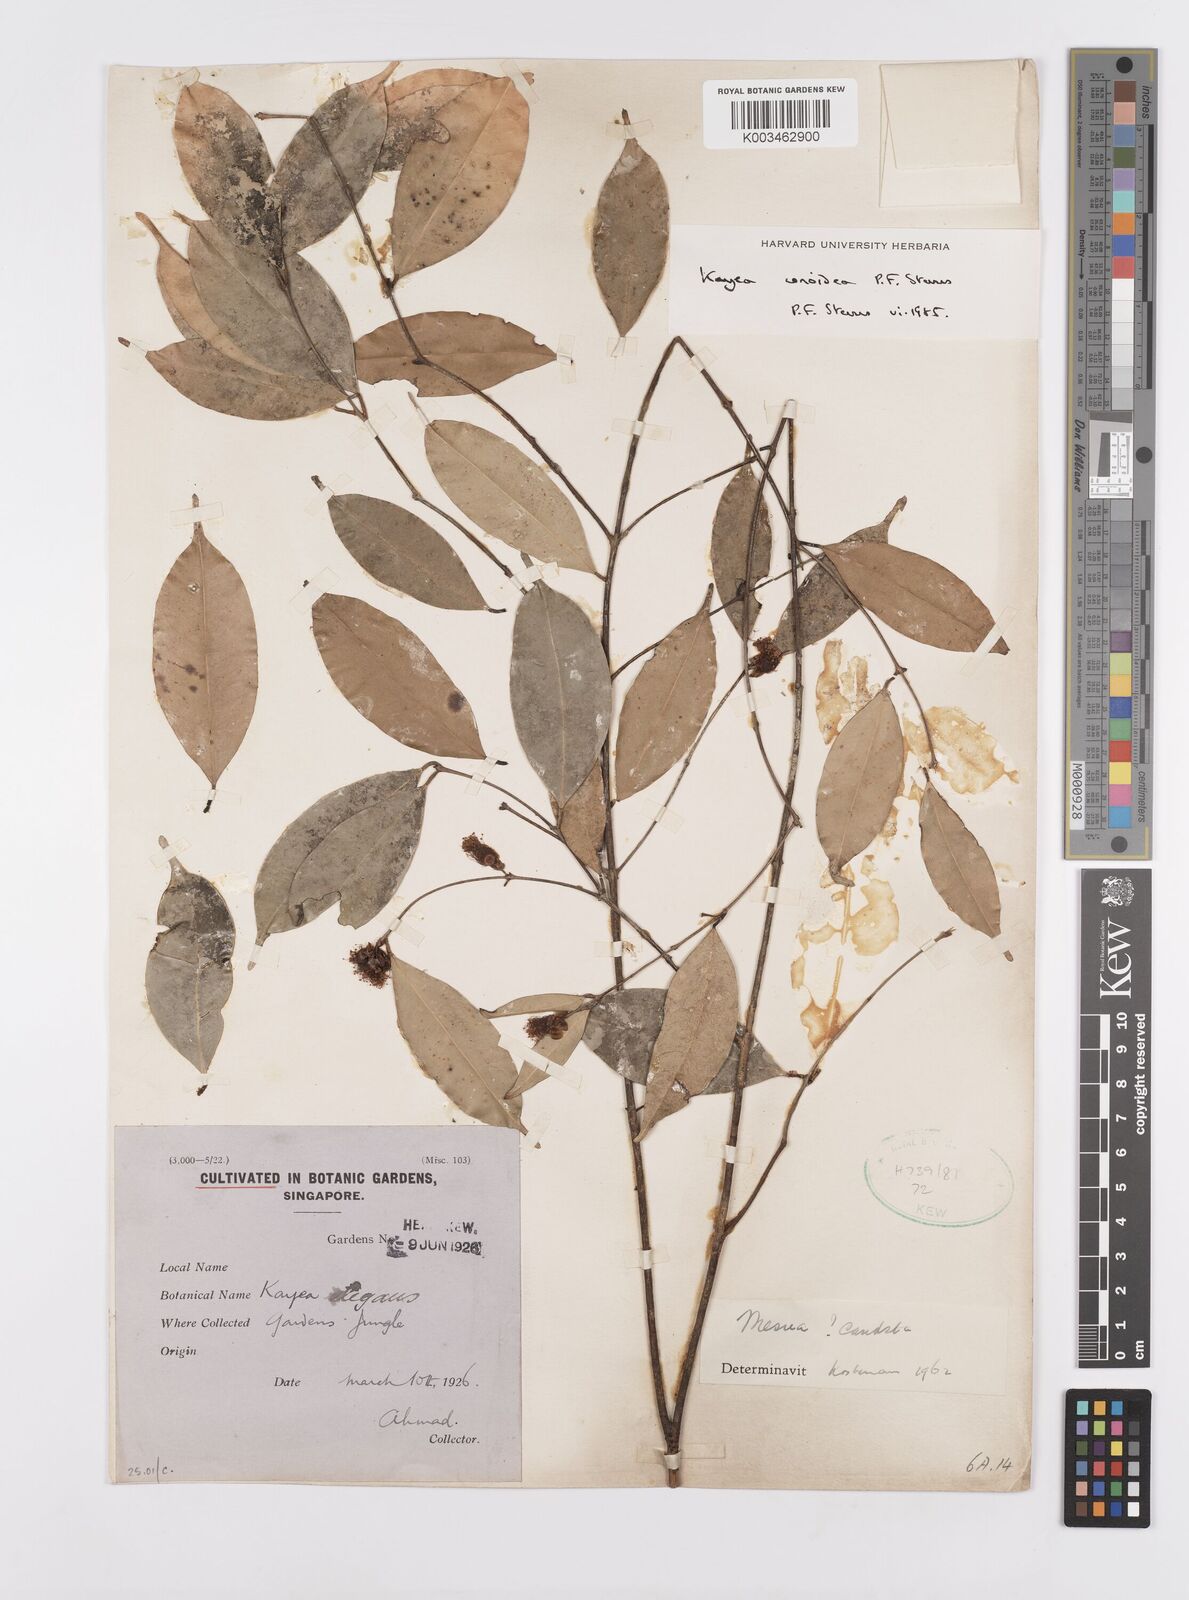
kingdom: Plantae
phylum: Tracheophyta
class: Magnoliopsida
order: Malpighiales
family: Calophyllaceae
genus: Kayea
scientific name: Kayea
